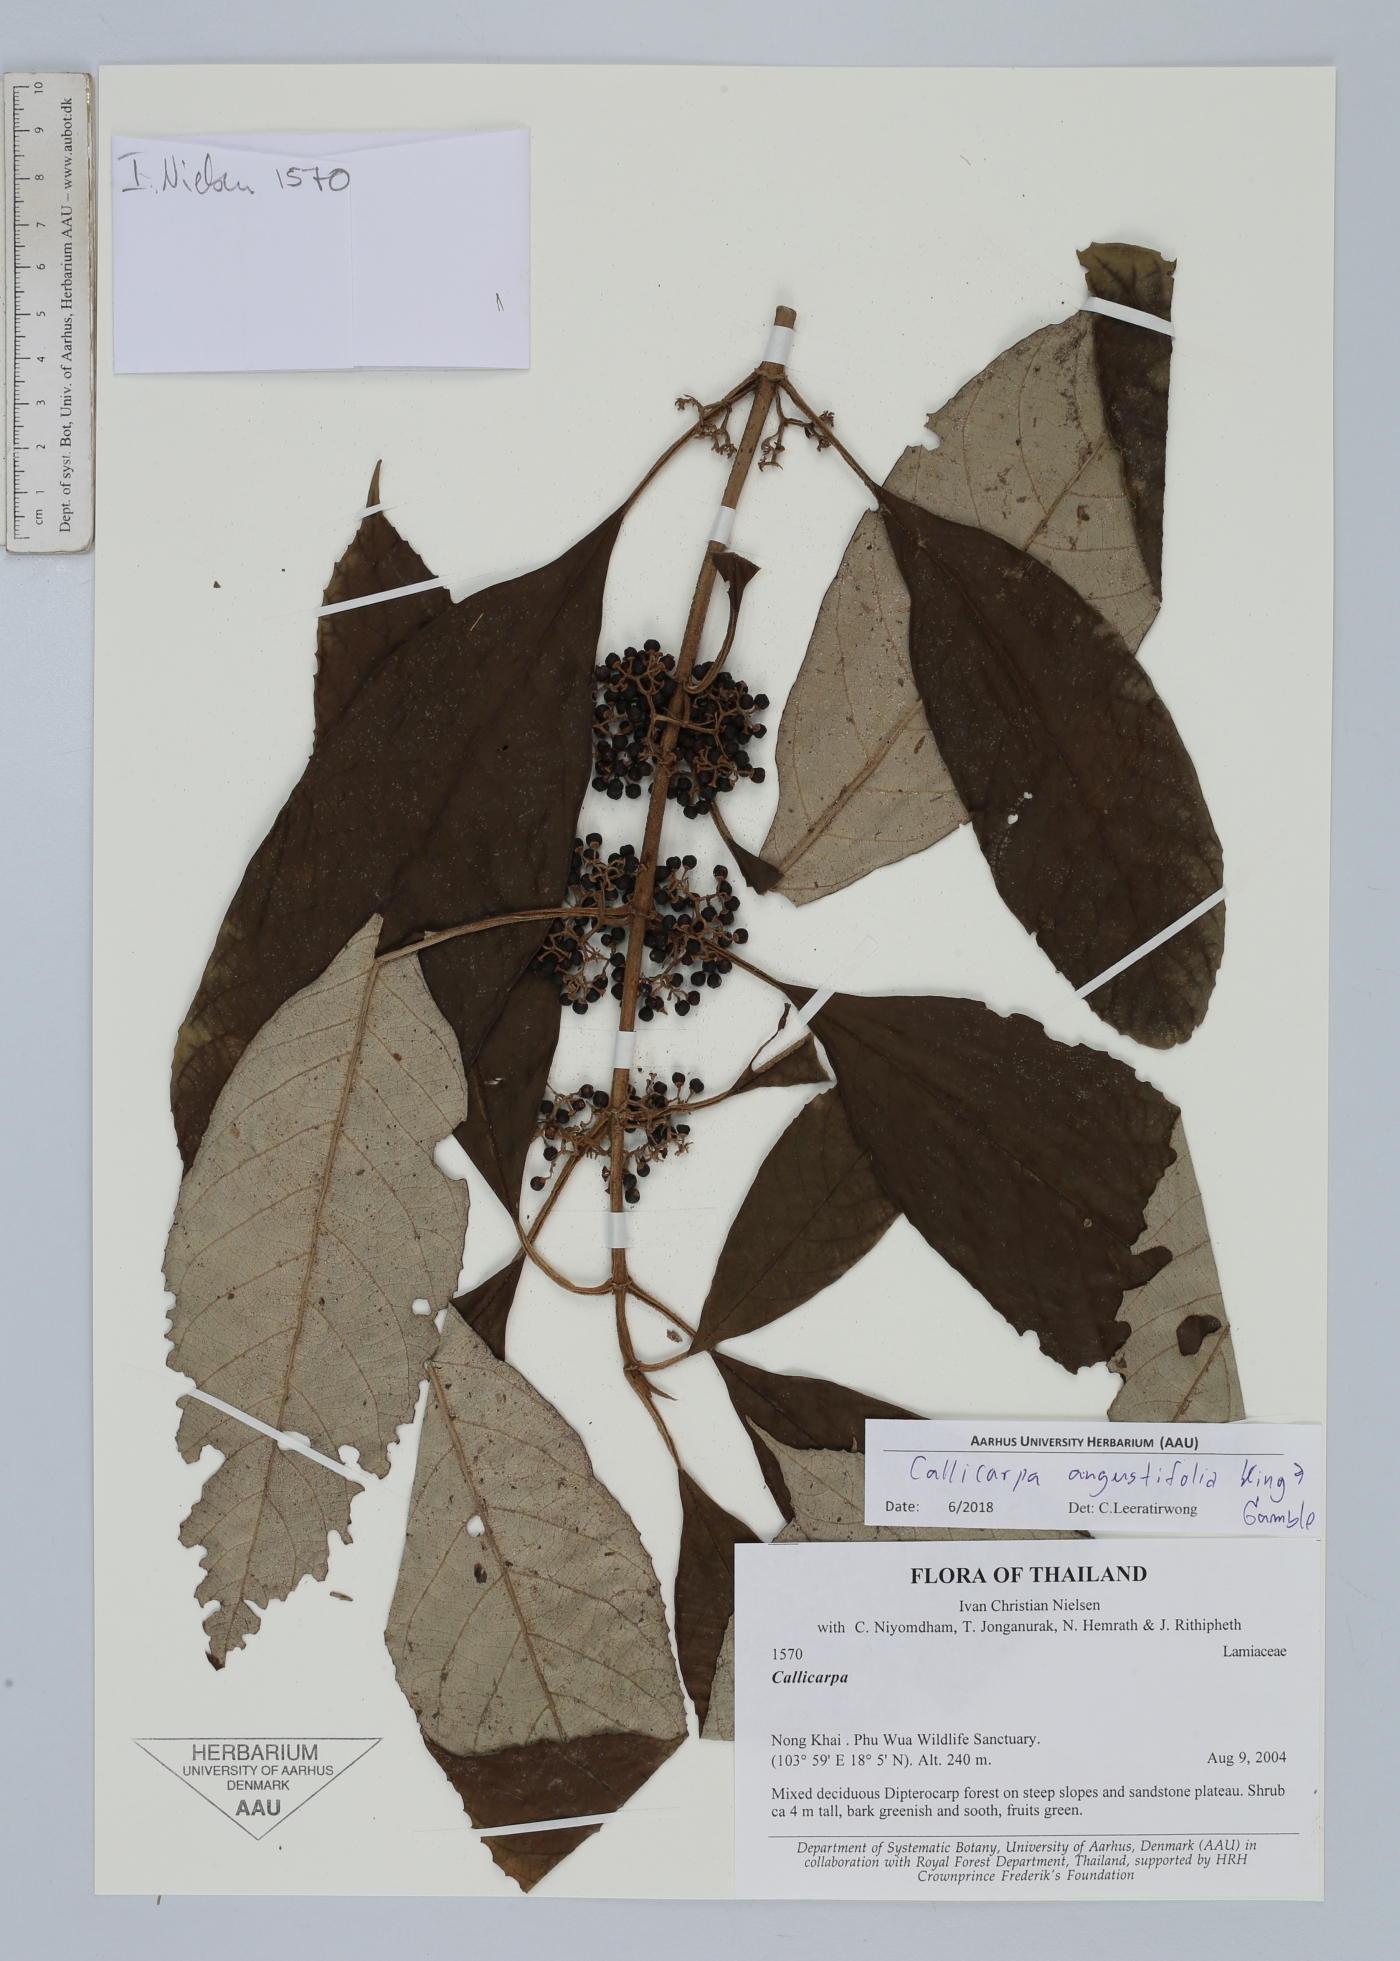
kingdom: Plantae
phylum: Tracheophyta
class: Magnoliopsida
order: Lamiales
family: Lamiaceae
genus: Callicarpa
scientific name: Callicarpa angustifolia
